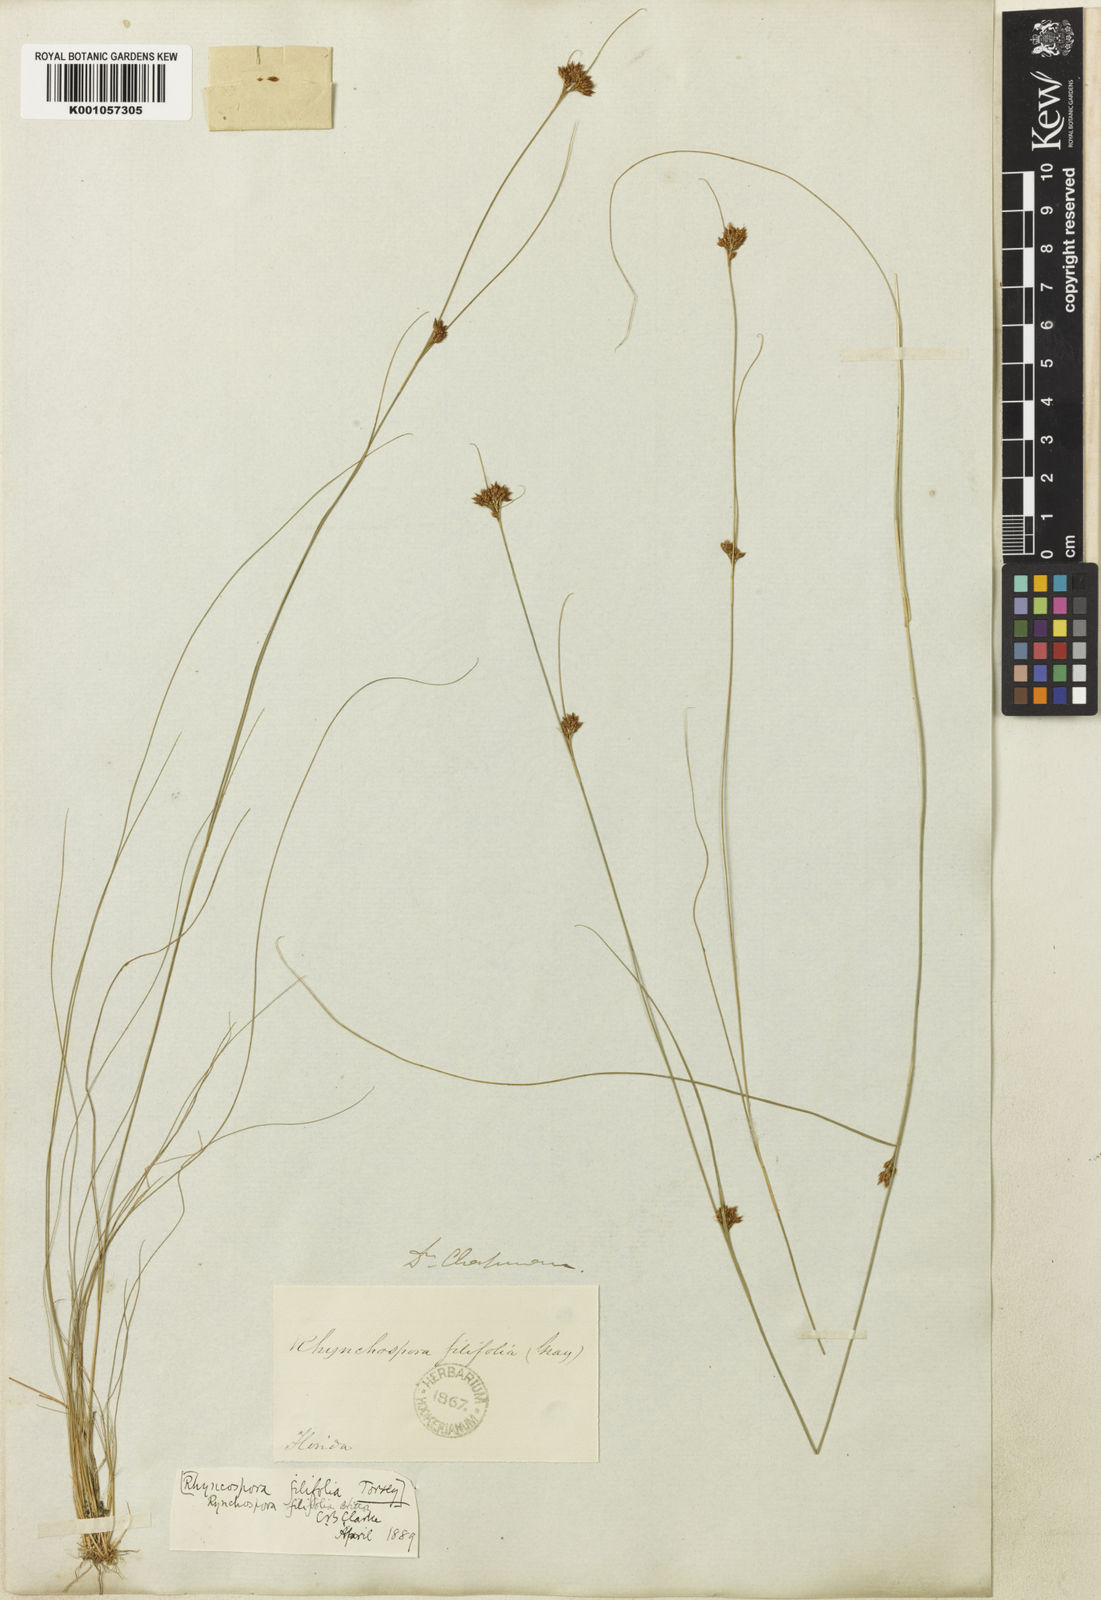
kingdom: Plantae
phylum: Tracheophyta
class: Liliopsida
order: Poales
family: Cyperaceae
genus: Rhynchospora
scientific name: Rhynchospora filifolia
